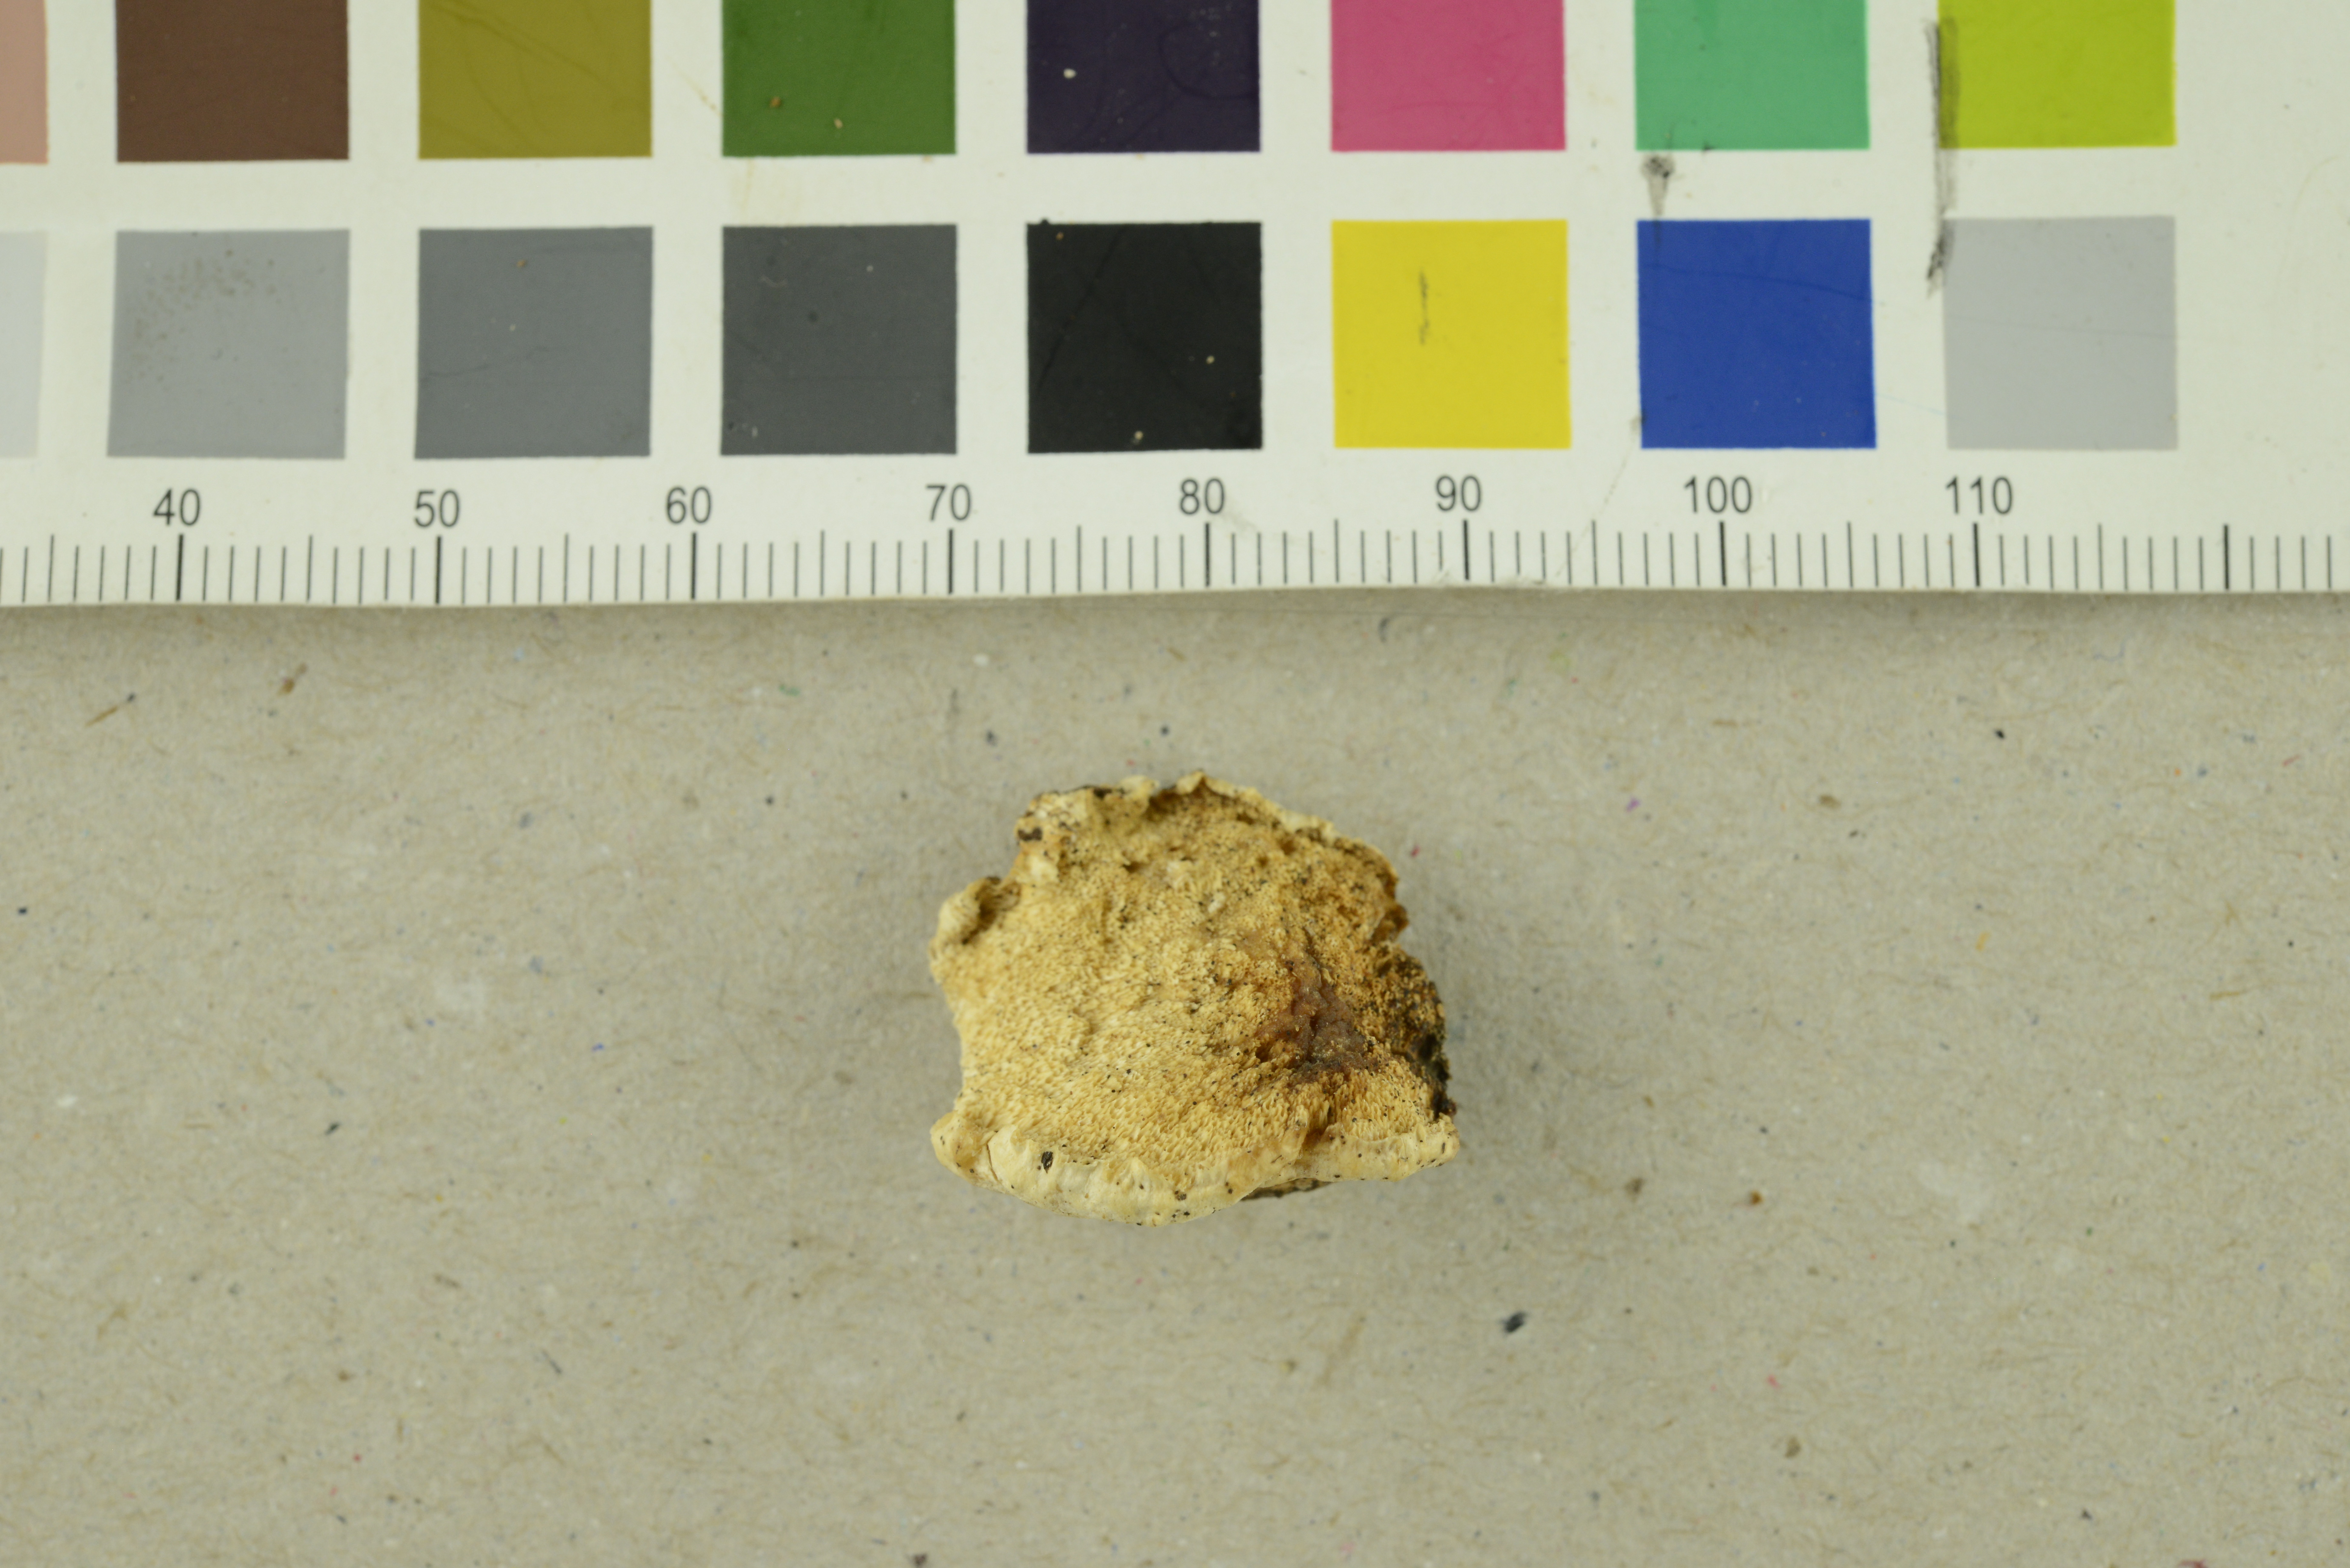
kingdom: Fungi
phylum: Basidiomycota
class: Agaricomycetes
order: Polyporales
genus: Amaropostia
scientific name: Amaropostia stiptica
